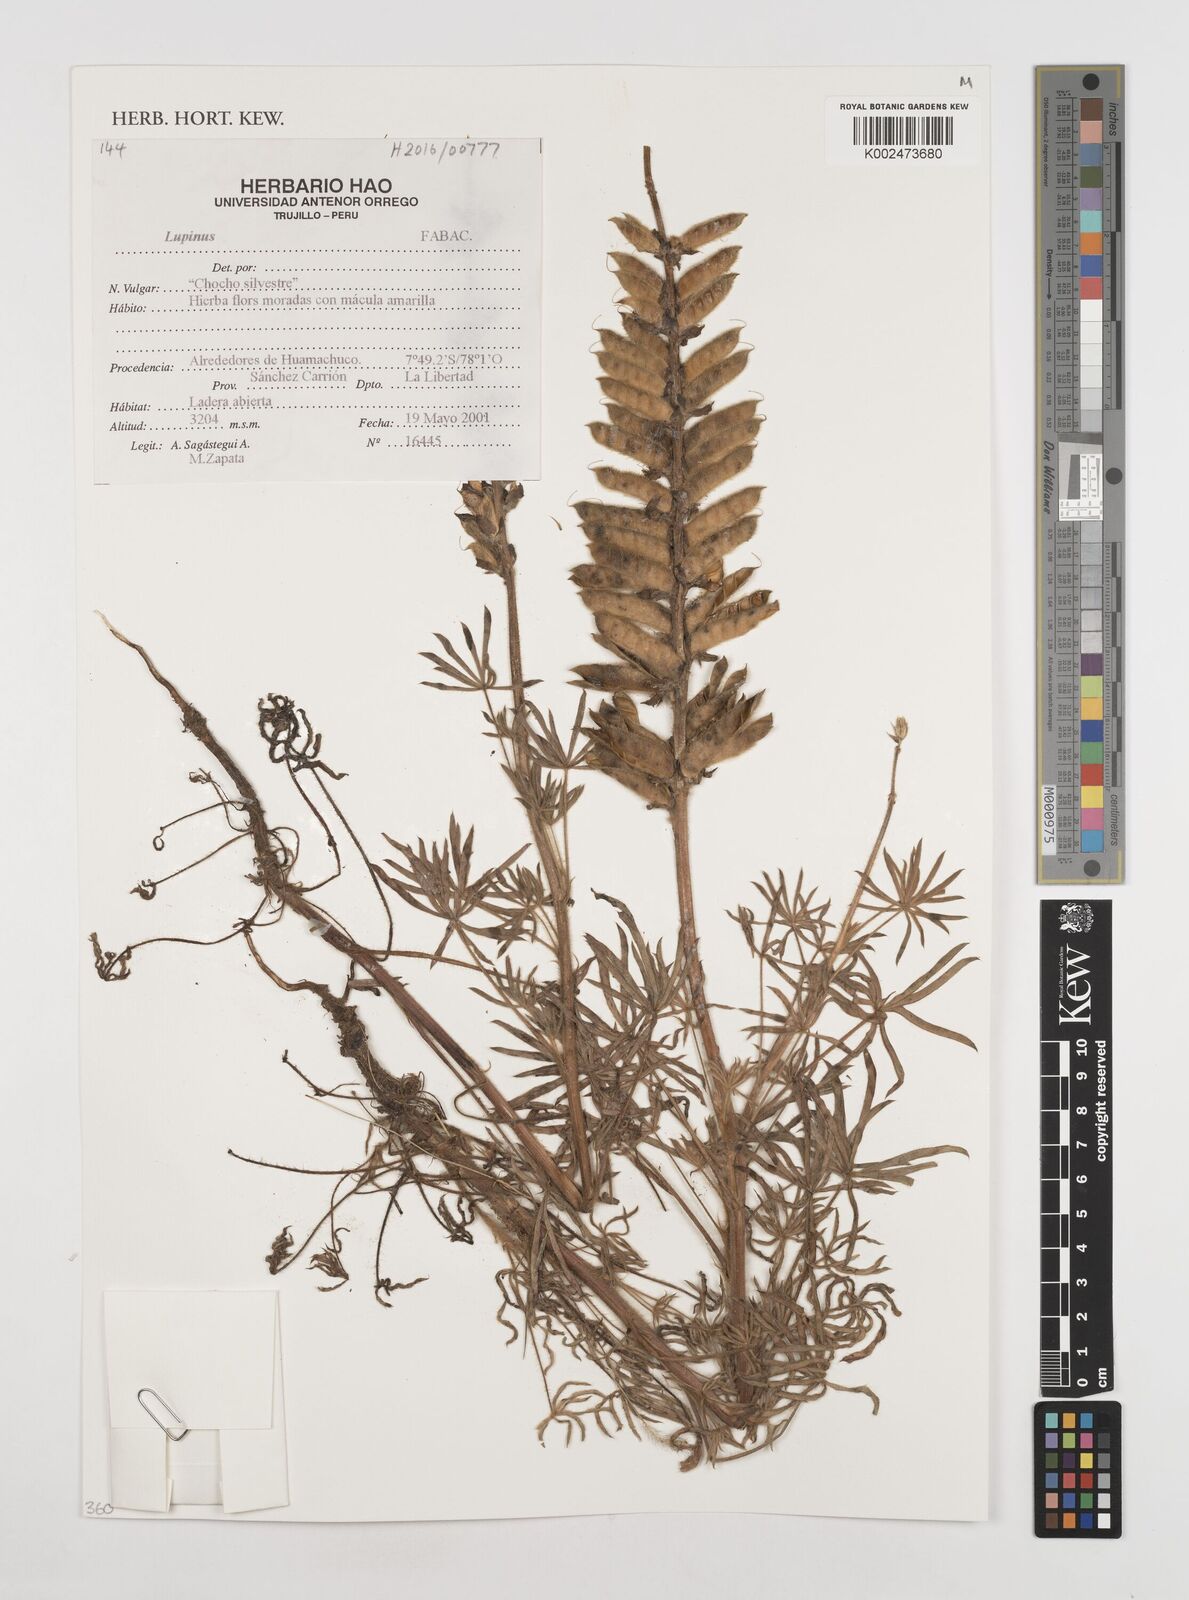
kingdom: Plantae
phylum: Tracheophyta
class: Magnoliopsida
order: Fabales
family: Fabaceae
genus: Lupinus
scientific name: Lupinus
